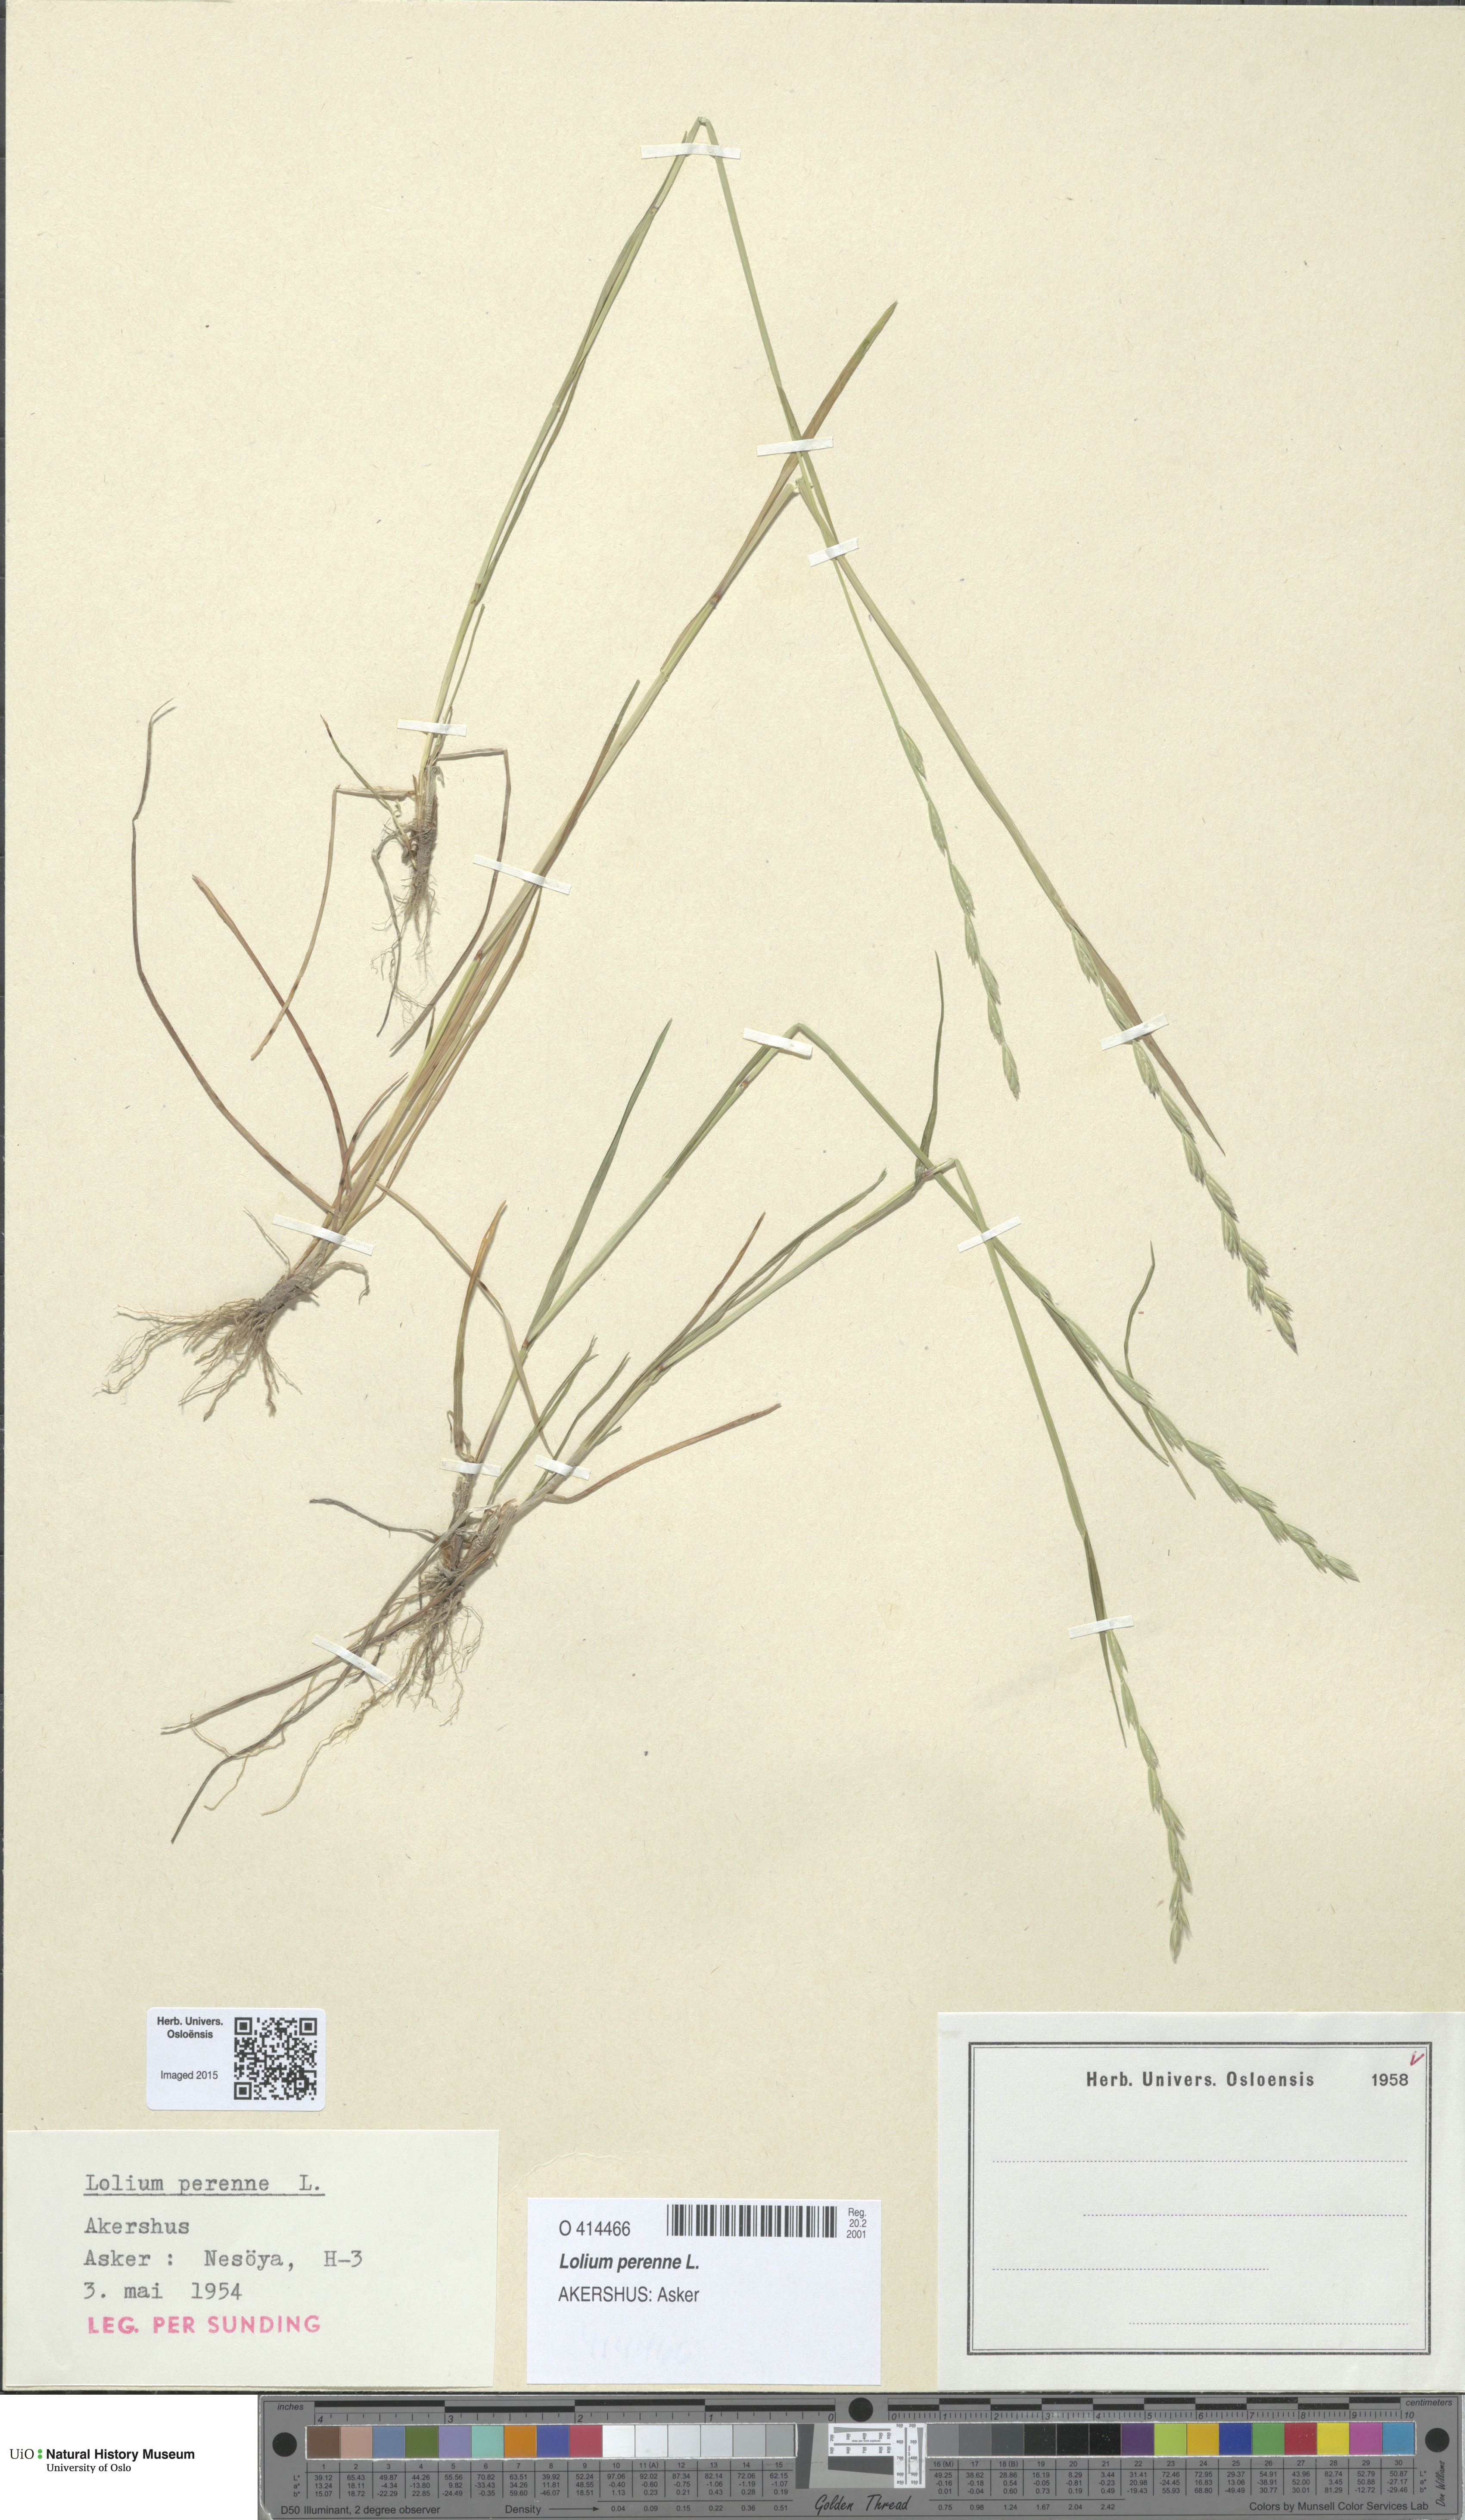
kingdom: Plantae
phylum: Tracheophyta
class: Liliopsida
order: Poales
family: Poaceae
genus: Lolium
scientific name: Lolium perenne
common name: Perennial ryegrass
